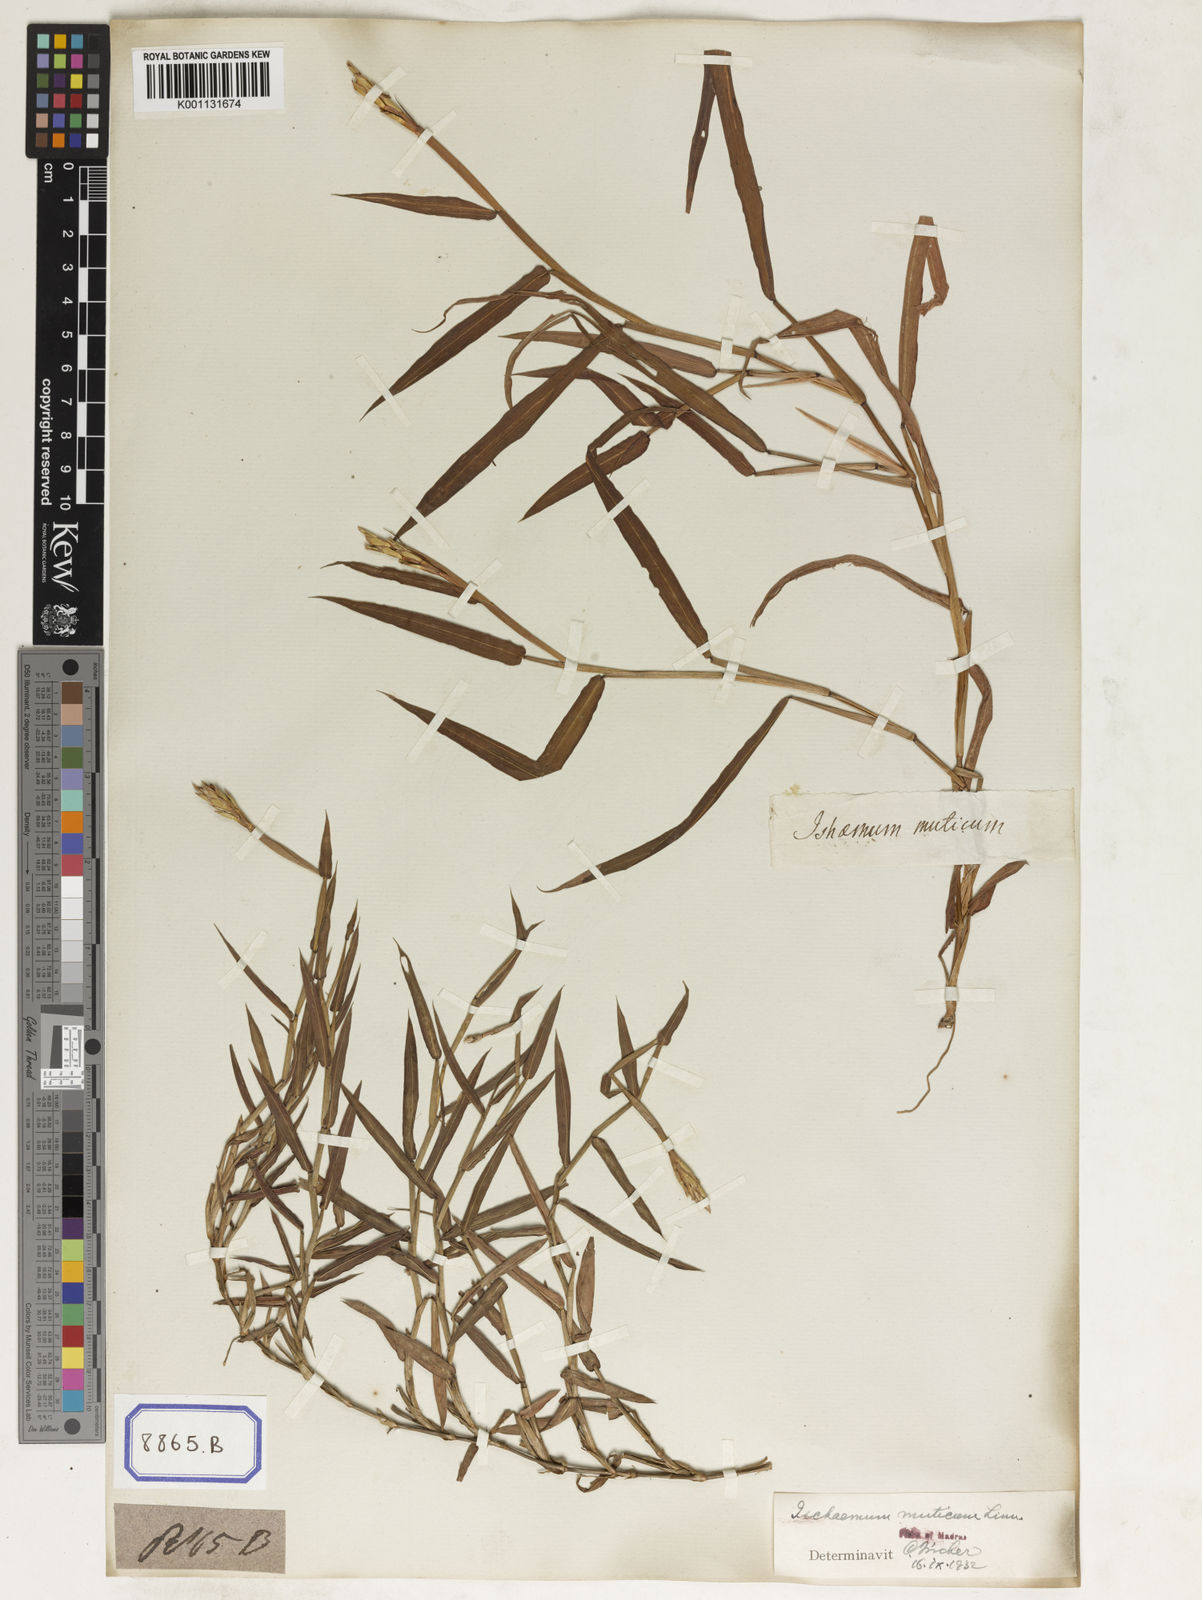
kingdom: Plantae
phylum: Tracheophyta
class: Liliopsida
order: Poales
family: Poaceae
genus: Ischaemum
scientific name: Ischaemum muticum
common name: Drought grass
